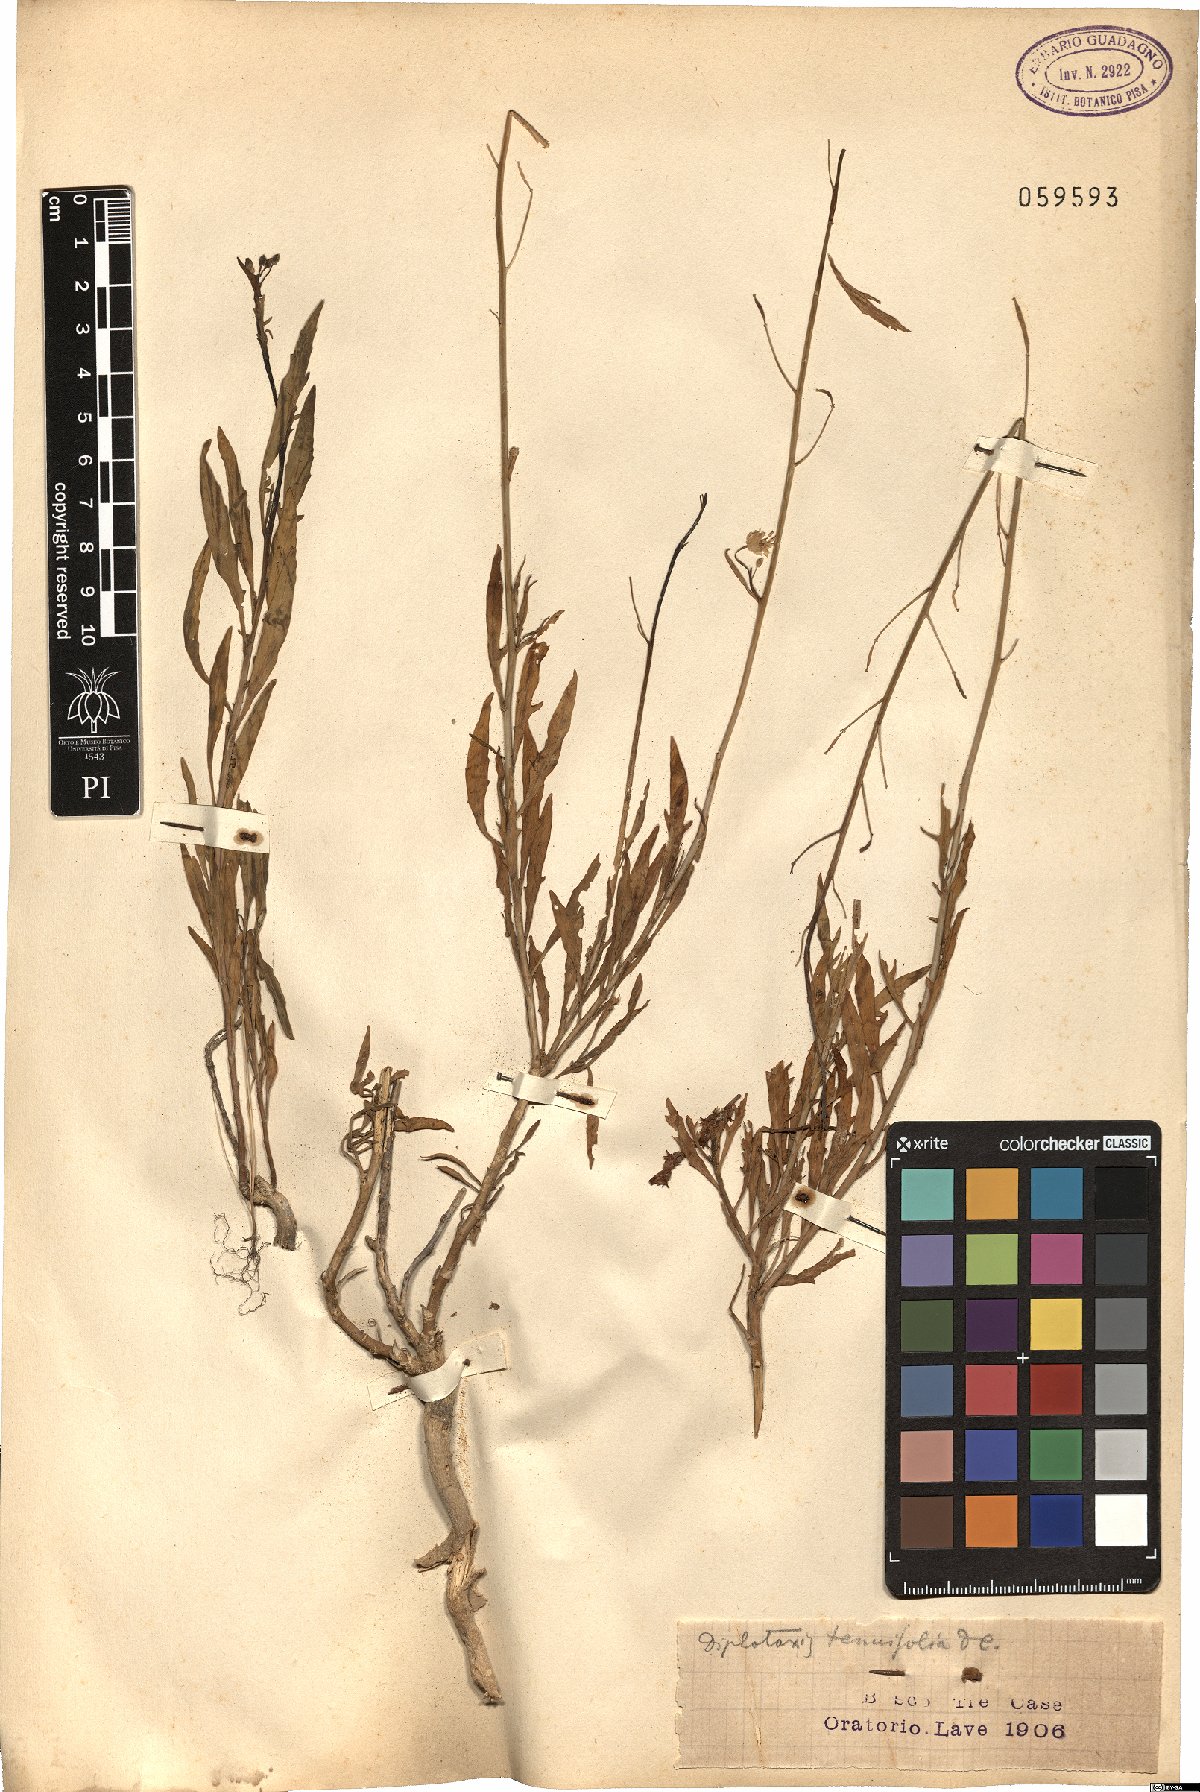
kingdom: Plantae
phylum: Tracheophyta
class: Magnoliopsida
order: Brassicales
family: Brassicaceae
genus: Diplotaxis
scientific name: Diplotaxis tenuifolia
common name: Perennial wall-rocket
